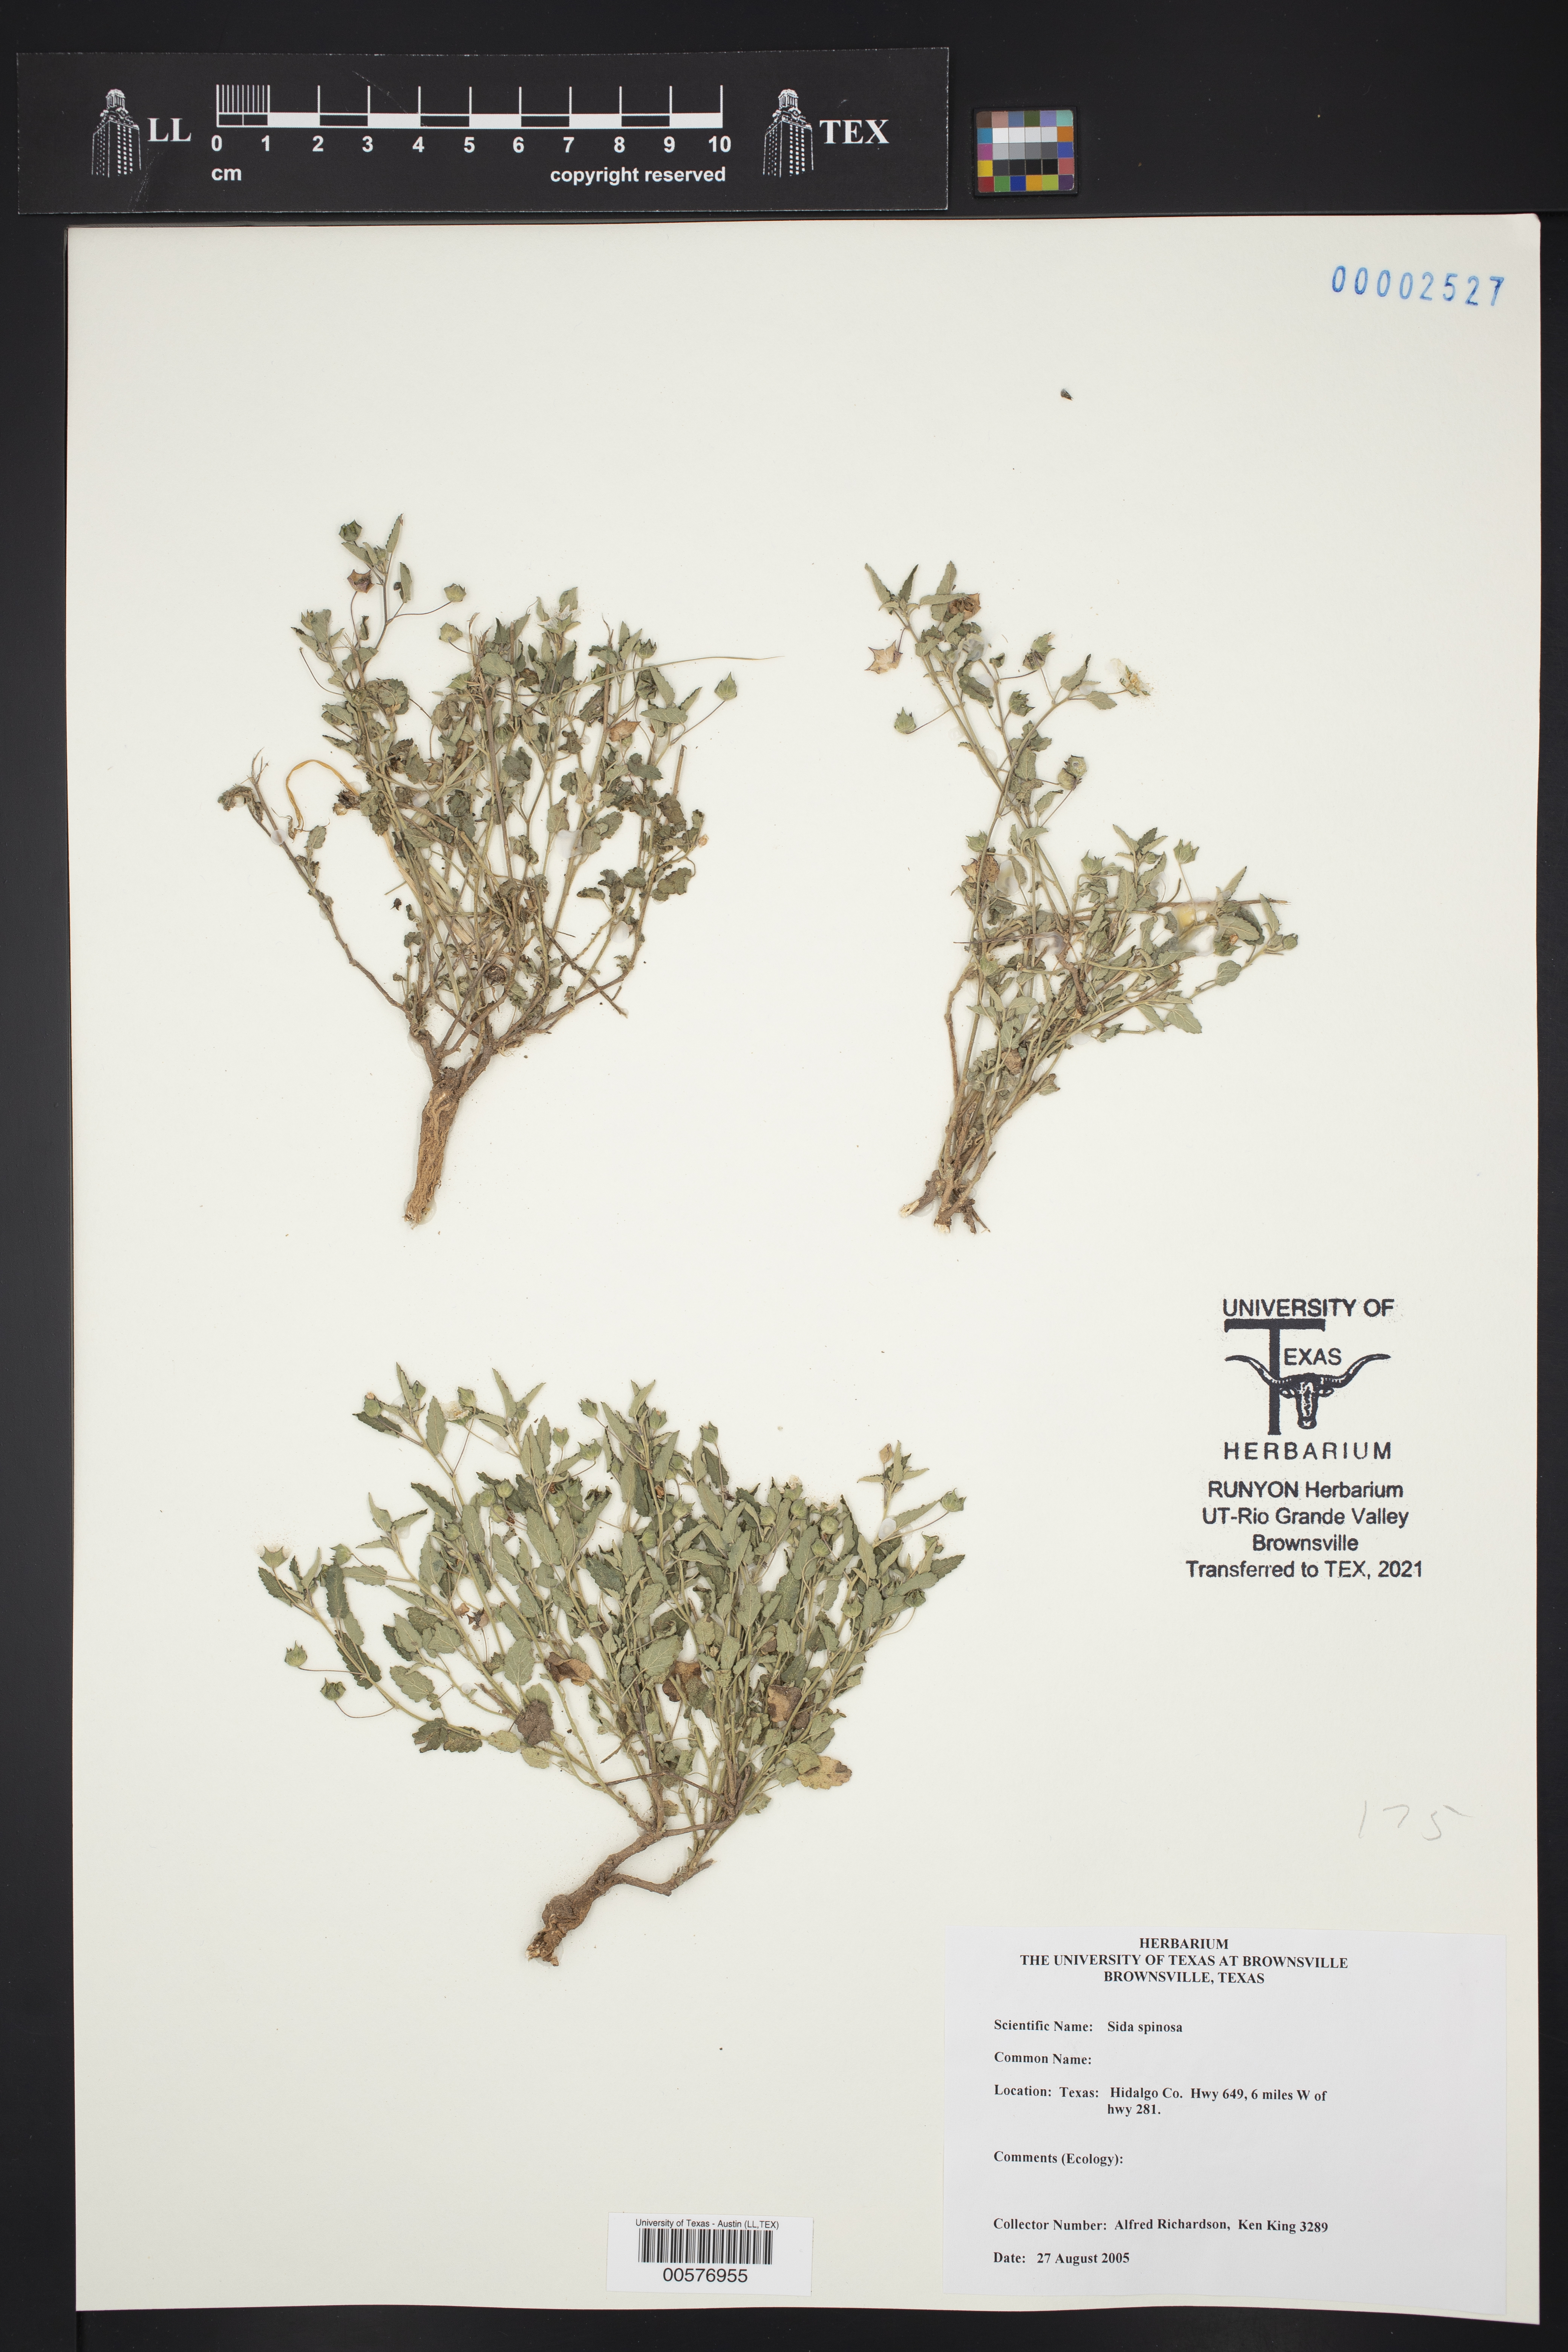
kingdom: Plantae
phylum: Tracheophyta
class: Magnoliopsida
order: Malvales
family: Malvaceae
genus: Sida
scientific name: Sida abutilifolia
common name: Spreading fanpetals
